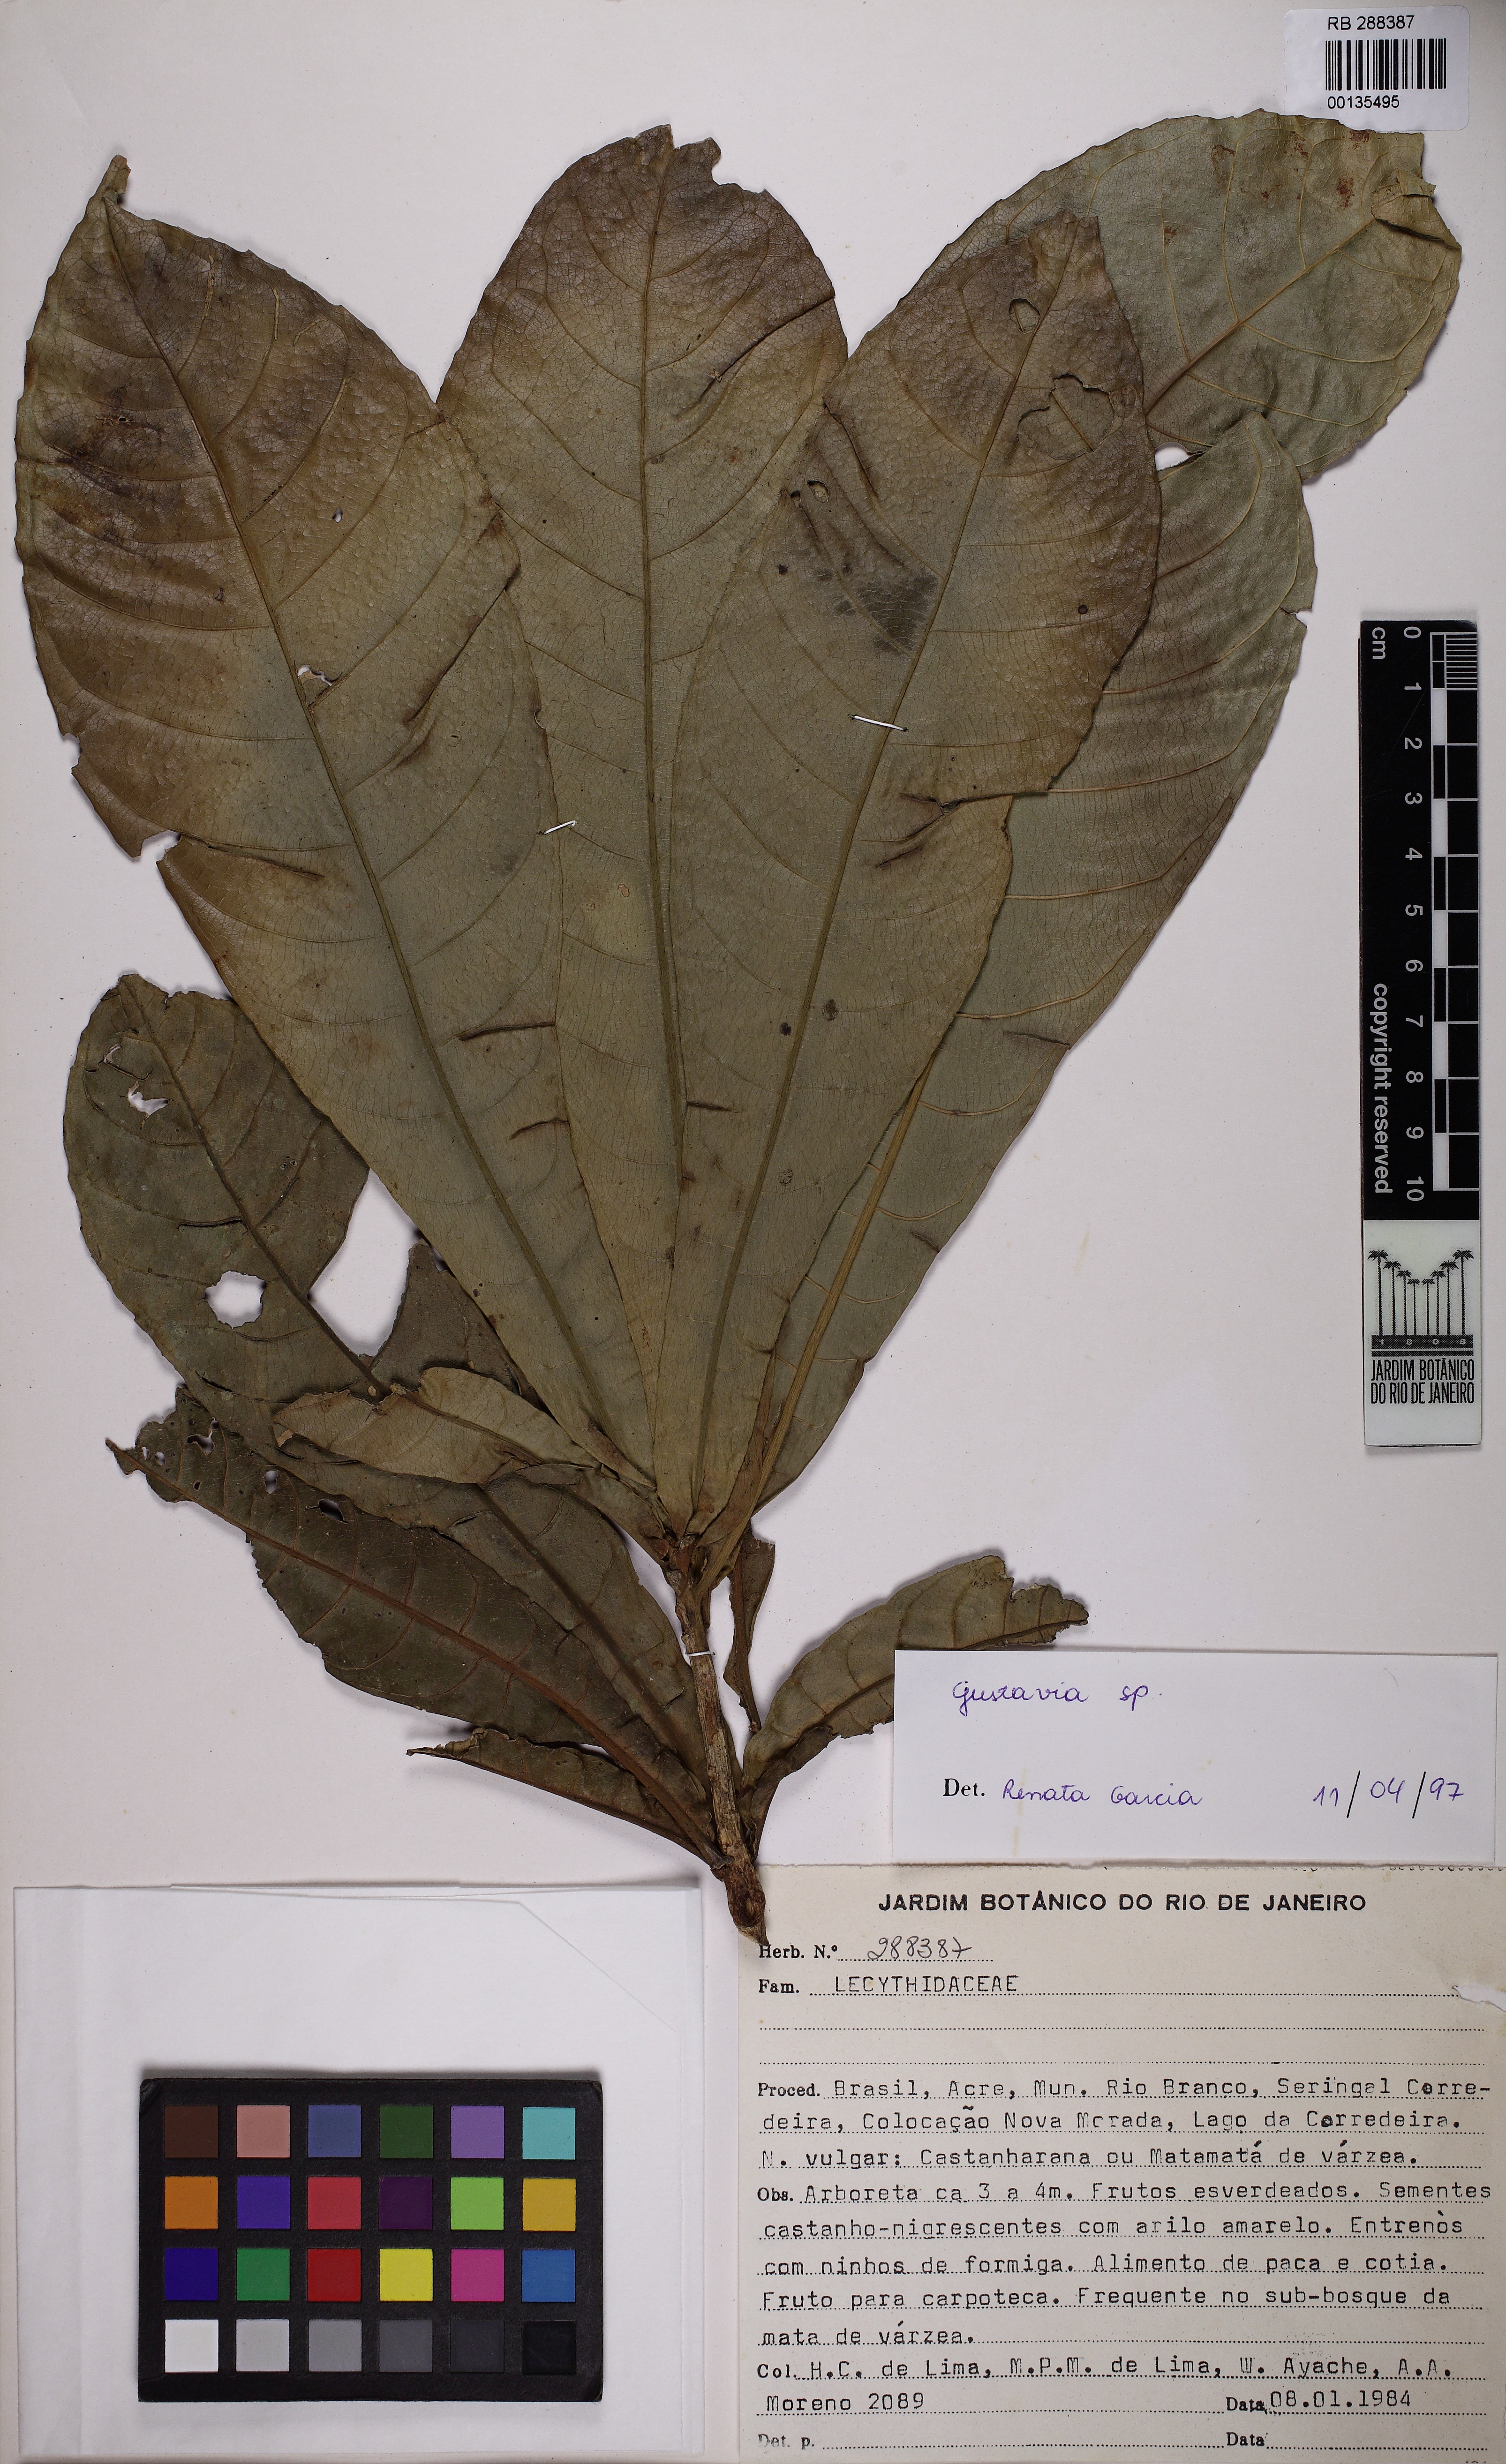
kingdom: Plantae
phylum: Tracheophyta
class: Magnoliopsida
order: Ericales
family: Lecythidaceae
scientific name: Lecythidaceae
